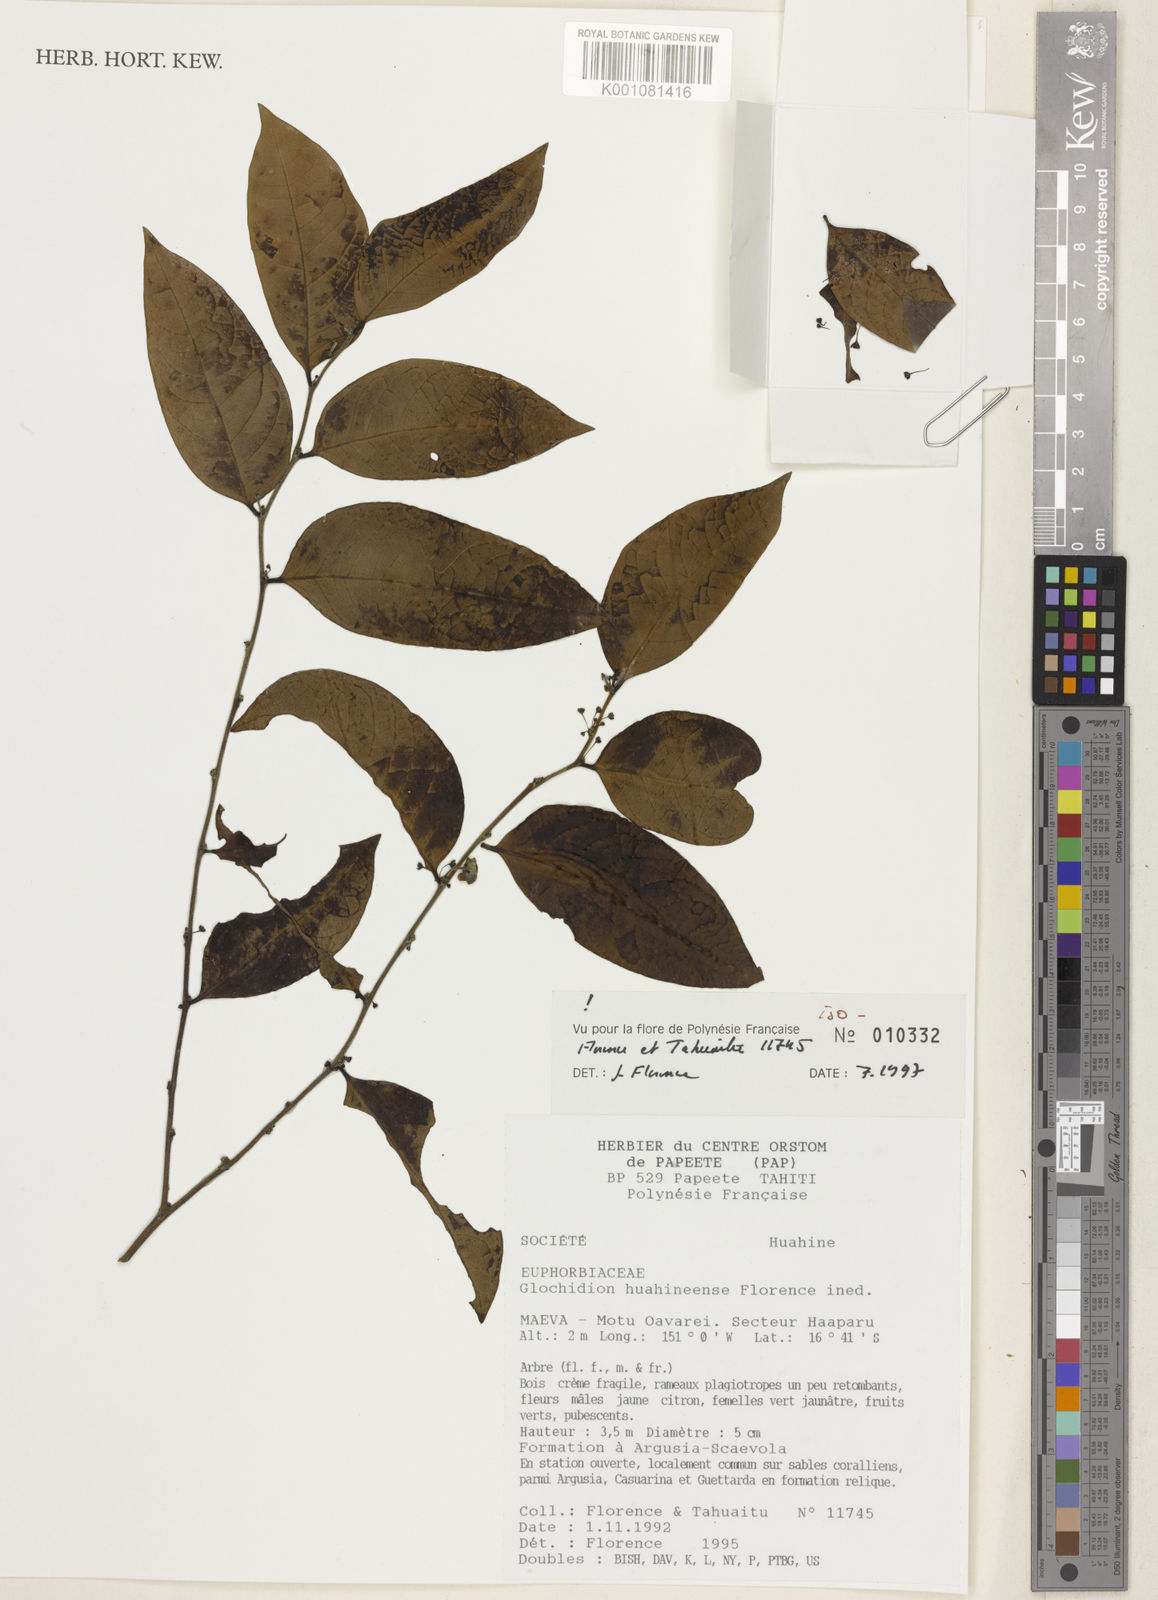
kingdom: Plantae
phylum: Tracheophyta
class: Magnoliopsida
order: Malpighiales
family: Phyllanthaceae
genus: Glochidion
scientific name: Glochidion huahineense
